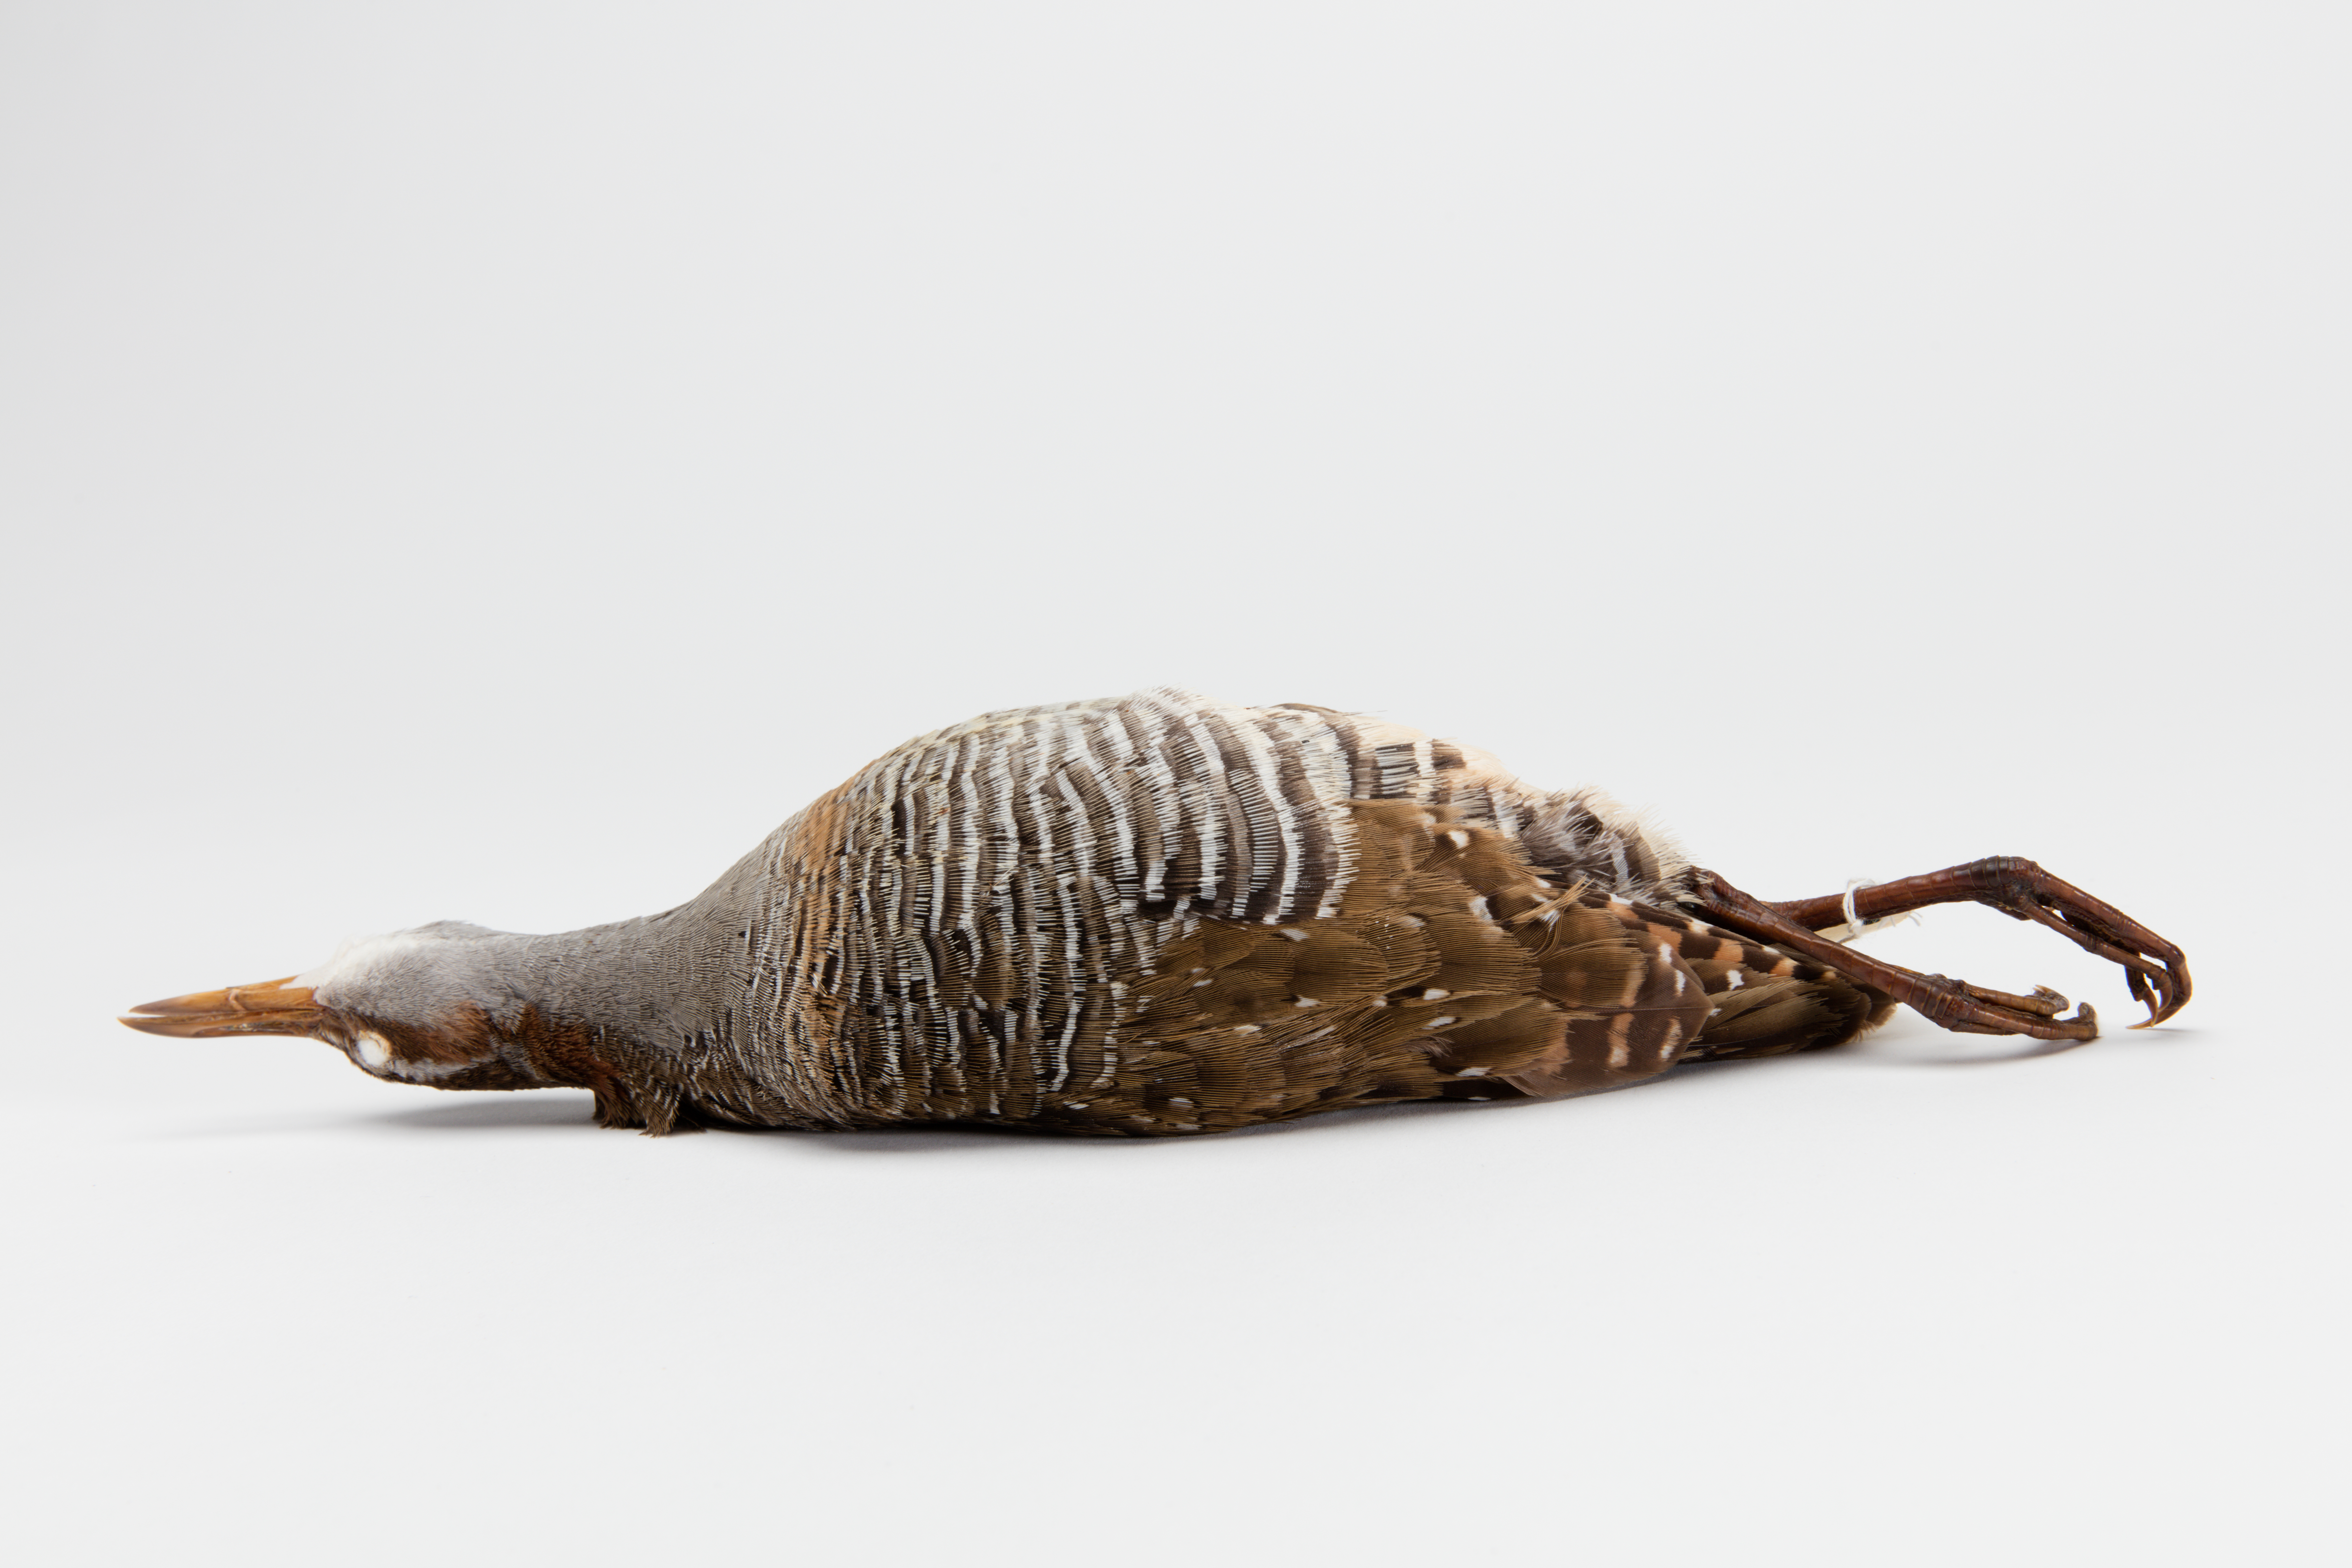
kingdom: Animalia
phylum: Chordata
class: Aves
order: Gruiformes
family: Rallidae
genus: Gallirallus
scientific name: Gallirallus philippensis
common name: Buff-banded rail
